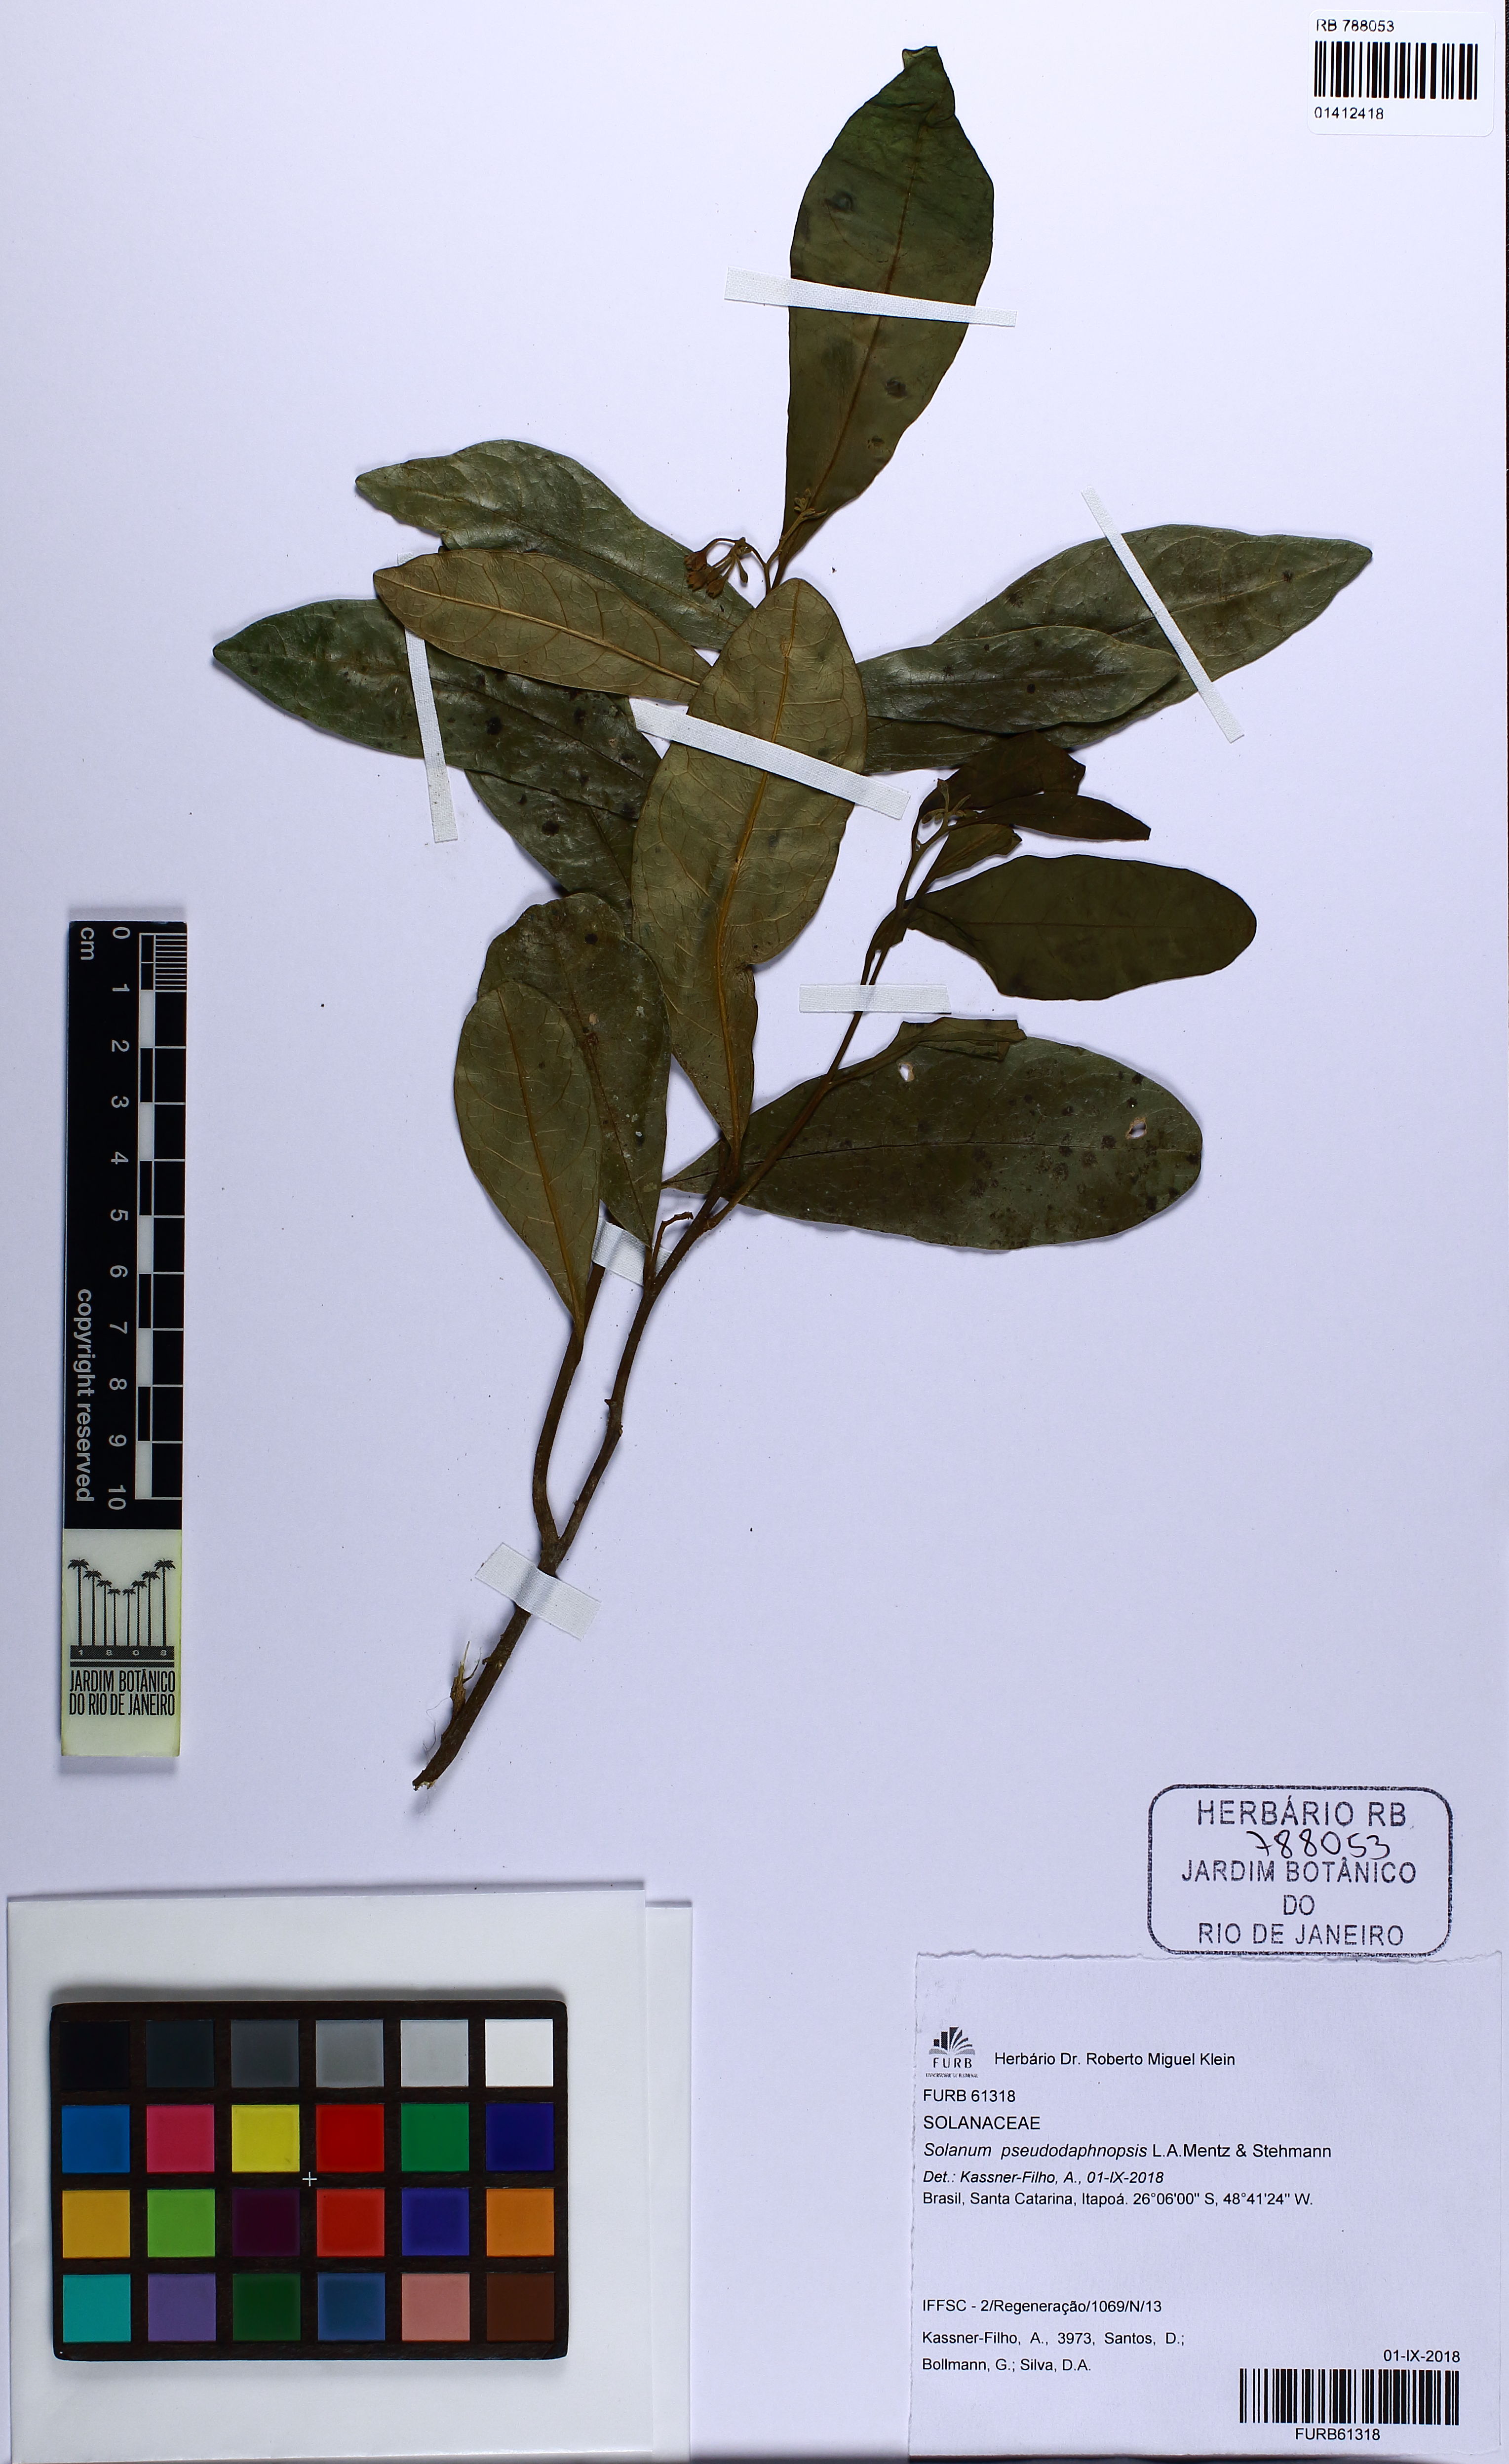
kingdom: Plantae
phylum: Tracheophyta
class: Magnoliopsida
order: Solanales
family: Solanaceae
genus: Solanum
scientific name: Solanum pseudodaphnopsis
